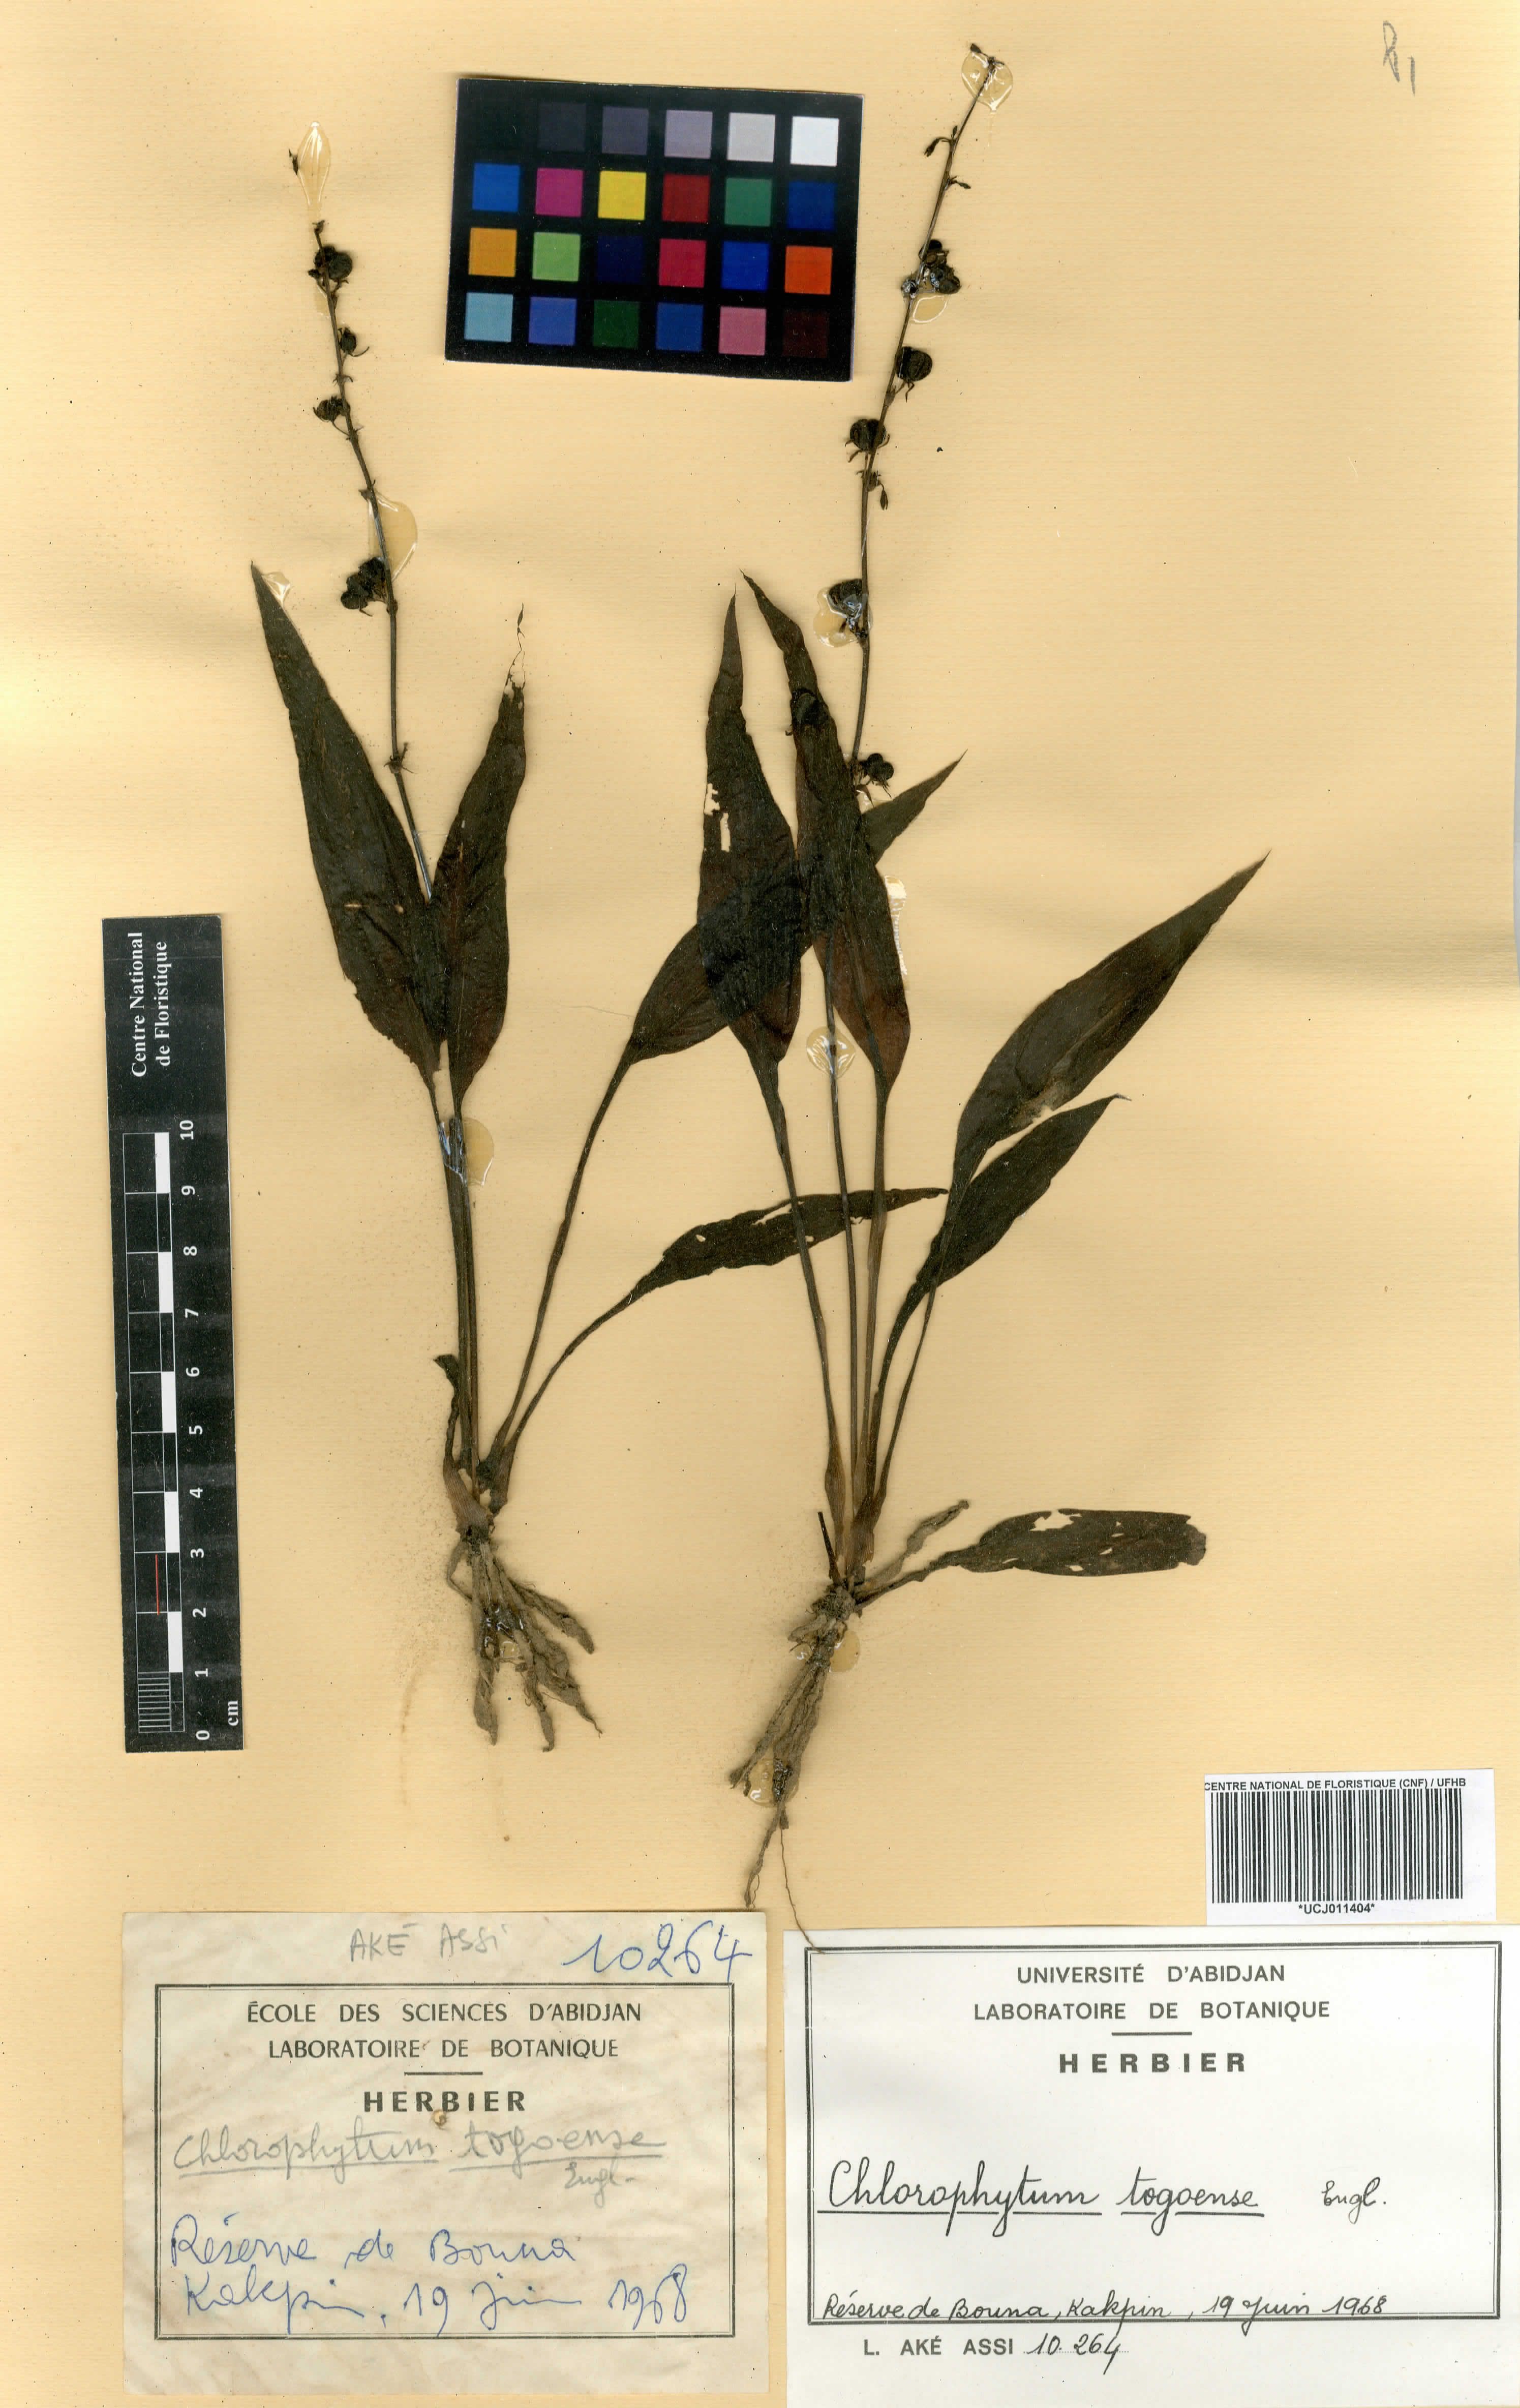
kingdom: Plantae
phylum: Tracheophyta
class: Liliopsida
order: Asparagales
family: Asparagaceae
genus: Chlorophytum
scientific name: Chlorophytum lancifolium
